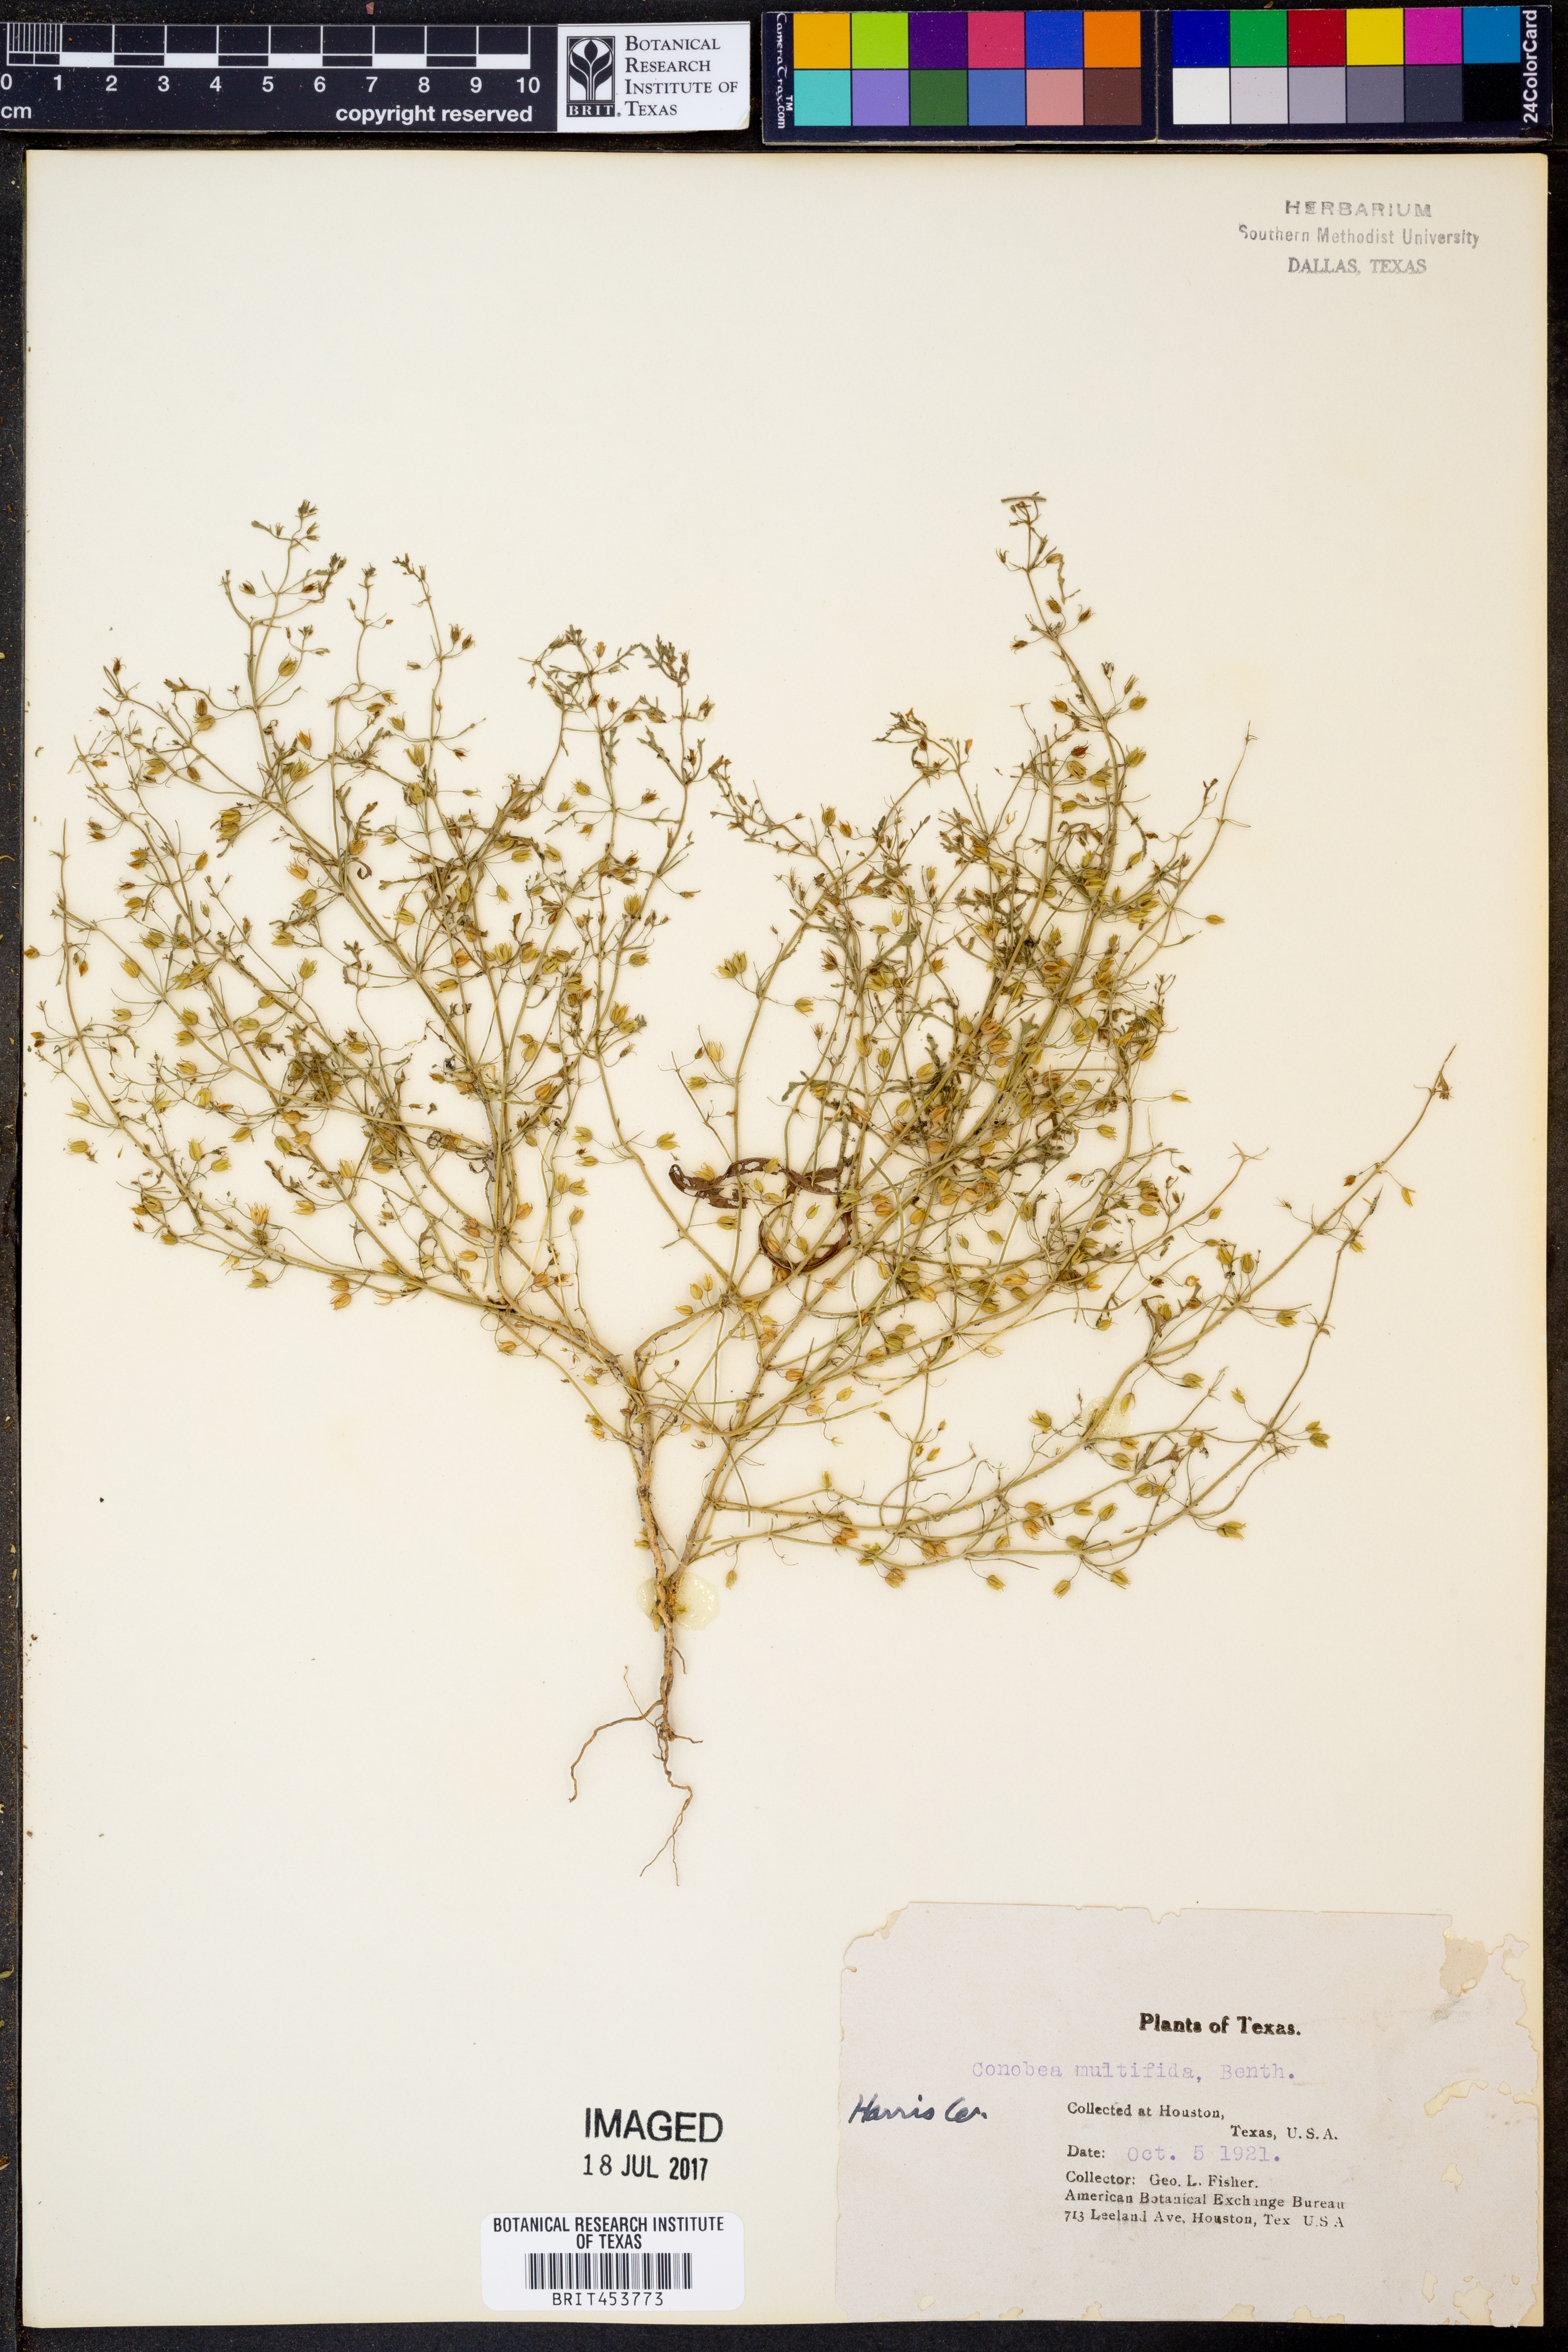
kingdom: Plantae
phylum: Tracheophyta
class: Magnoliopsida
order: Lamiales
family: Plantaginaceae
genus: Leucospora
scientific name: Leucospora multifida
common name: Narrow-leaf paleseed
